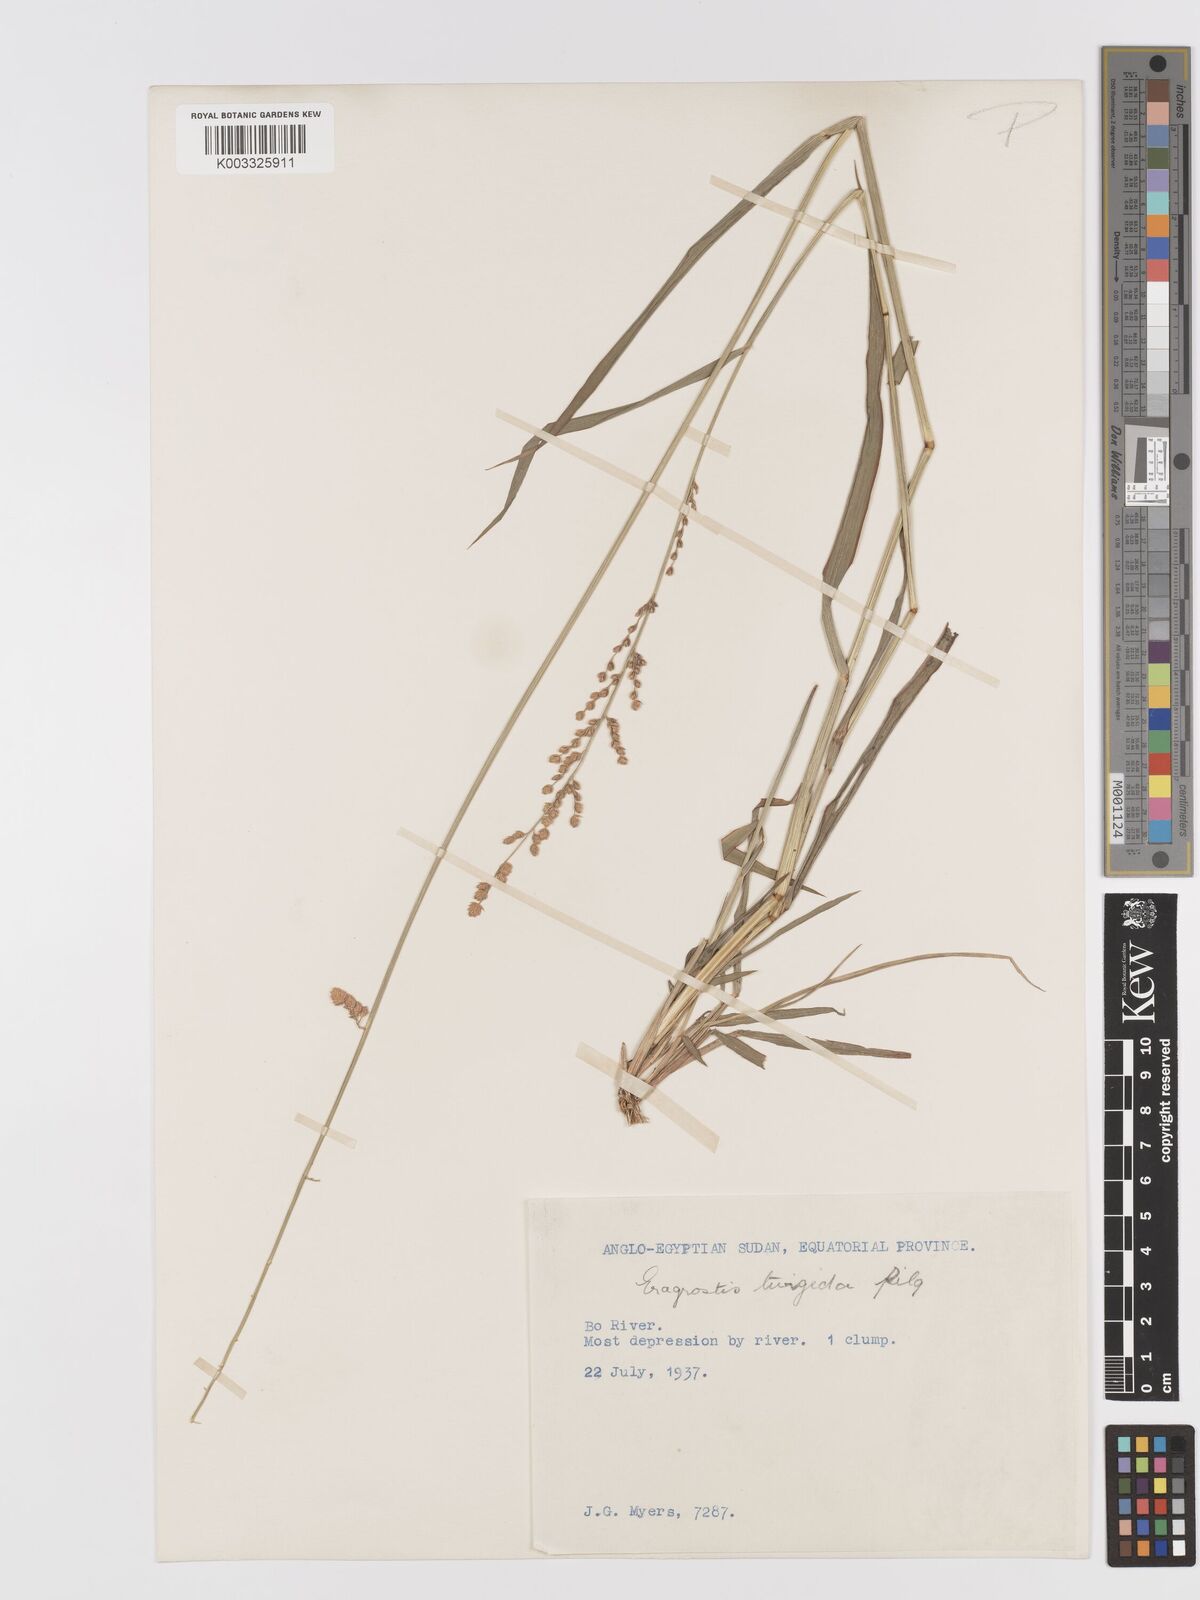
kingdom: Plantae
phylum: Tracheophyta
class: Liliopsida
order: Poales
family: Poaceae
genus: Eragrostis
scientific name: Eragrostis turgida
